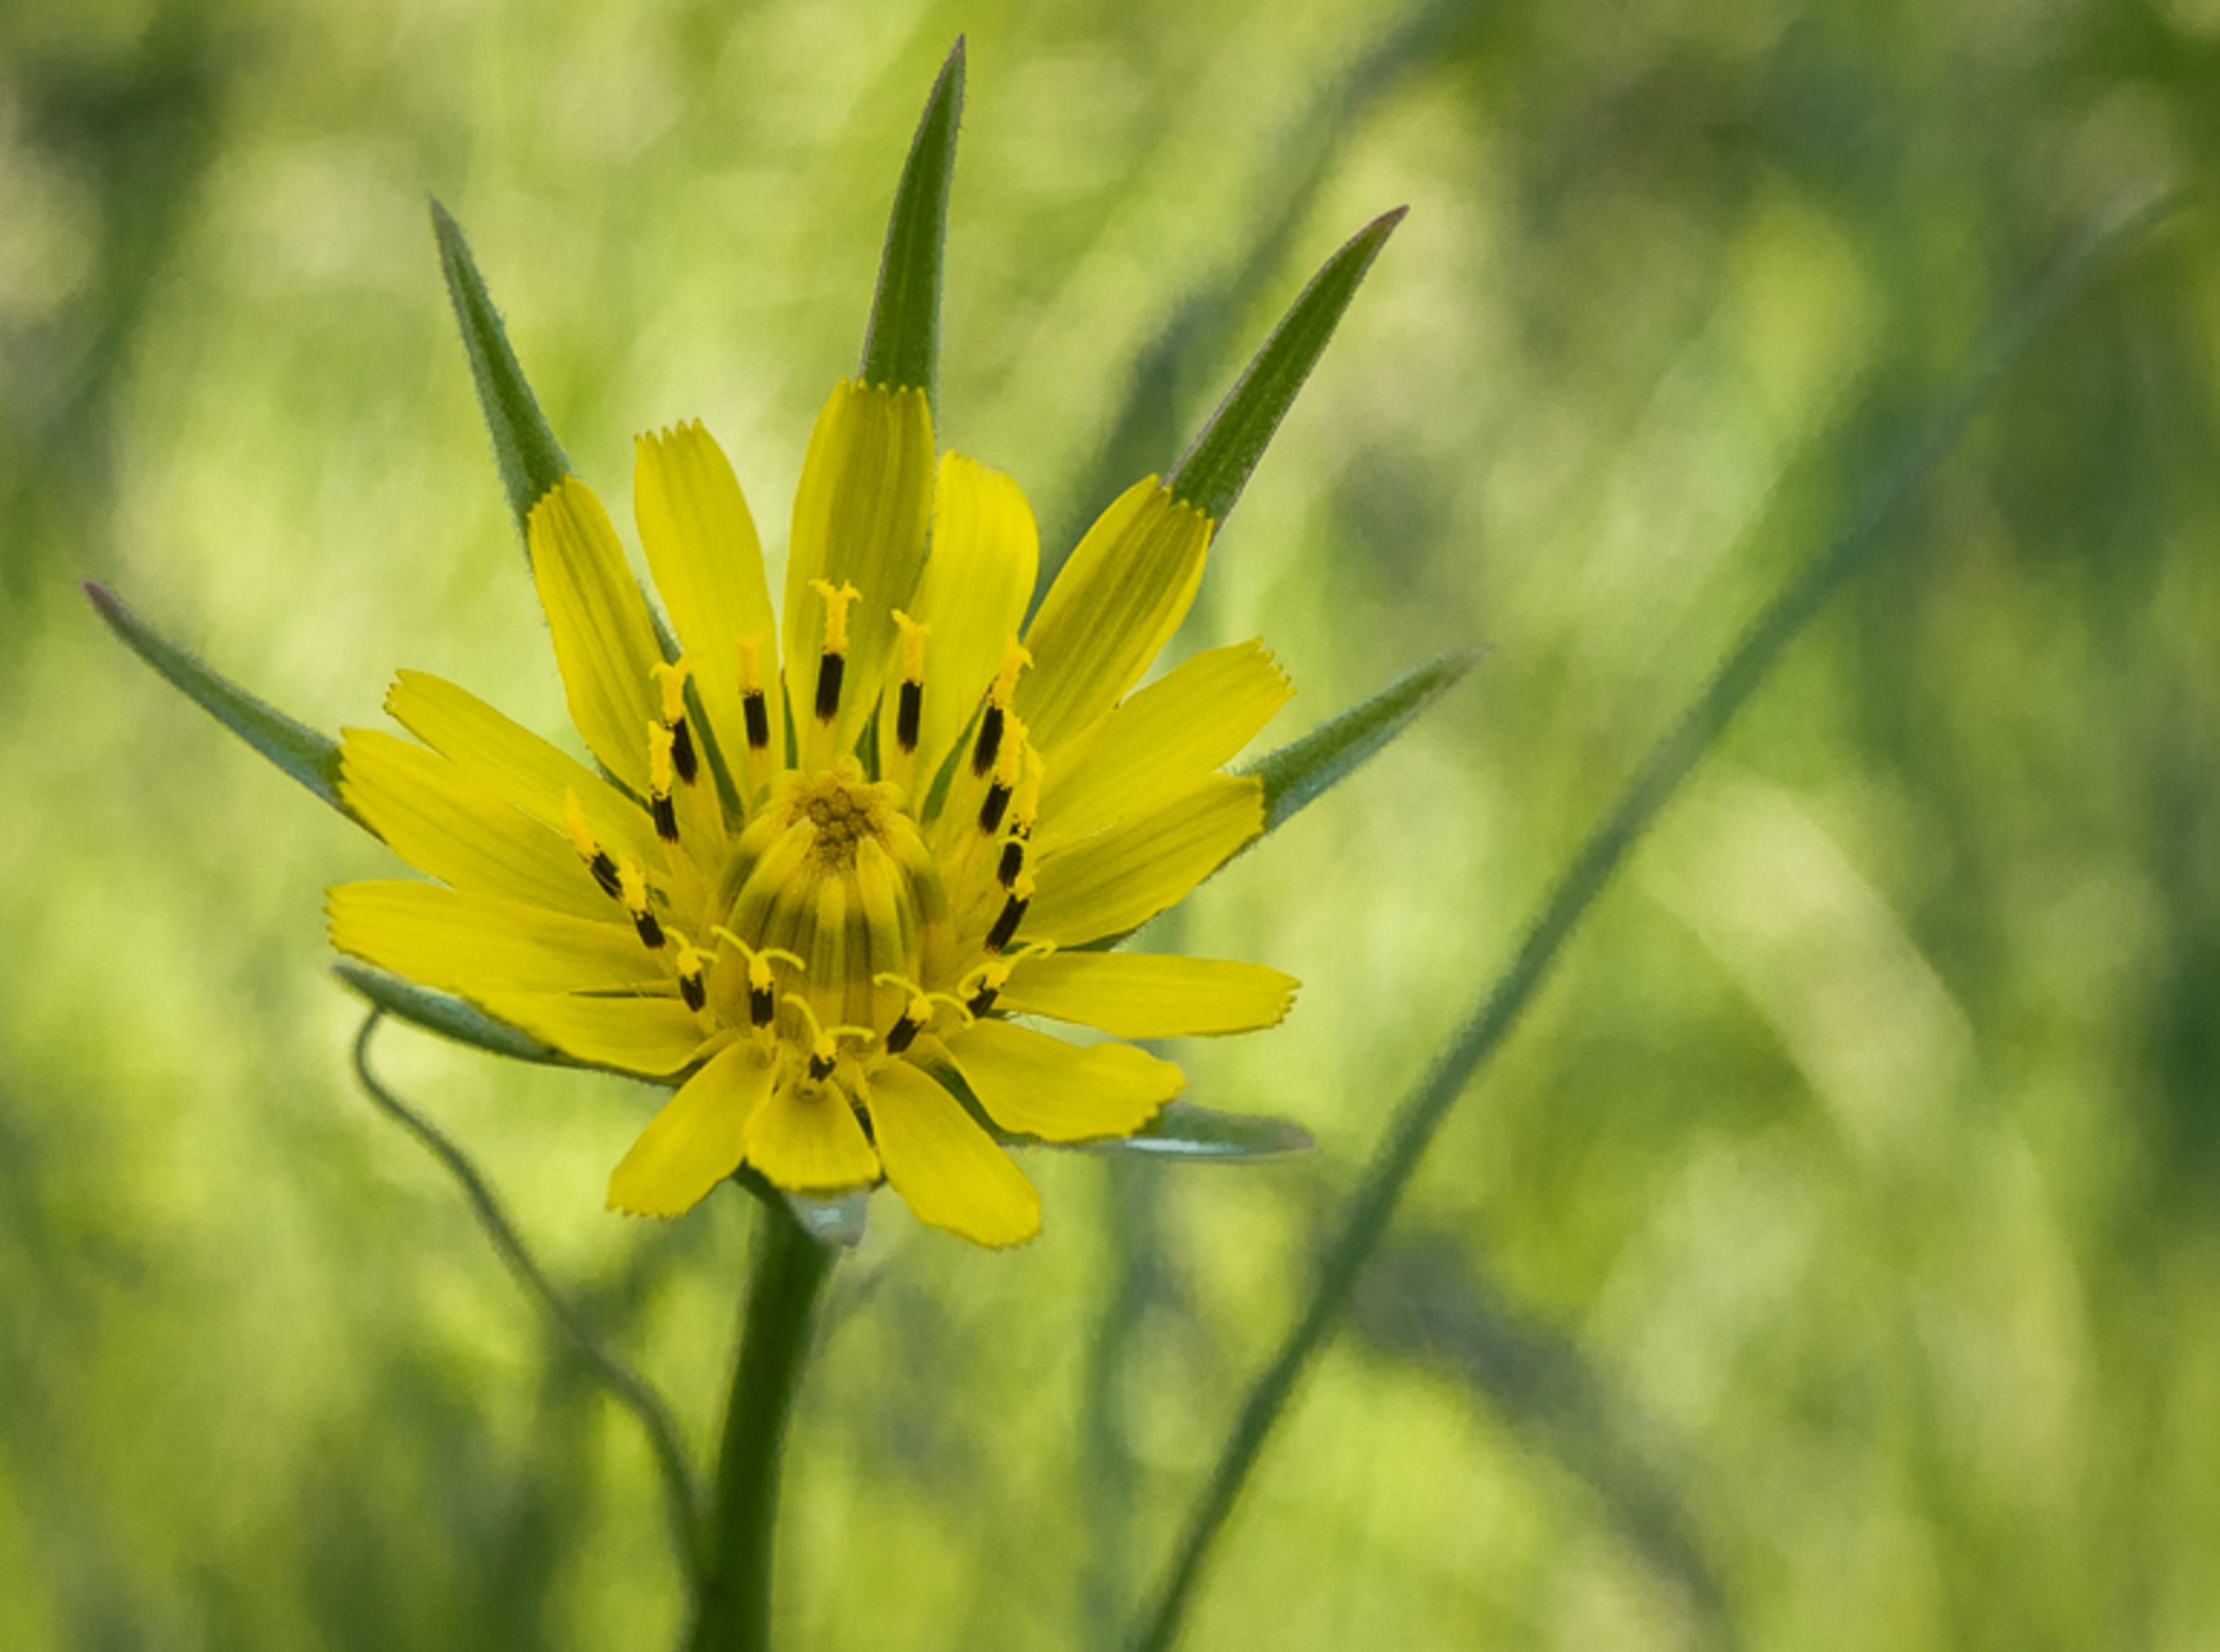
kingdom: Plantae
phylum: Tracheophyta
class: Magnoliopsida
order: Asterales
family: Asteraceae
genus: Tragopogon
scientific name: Tragopogon minor
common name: Småkronet gedeskæg
